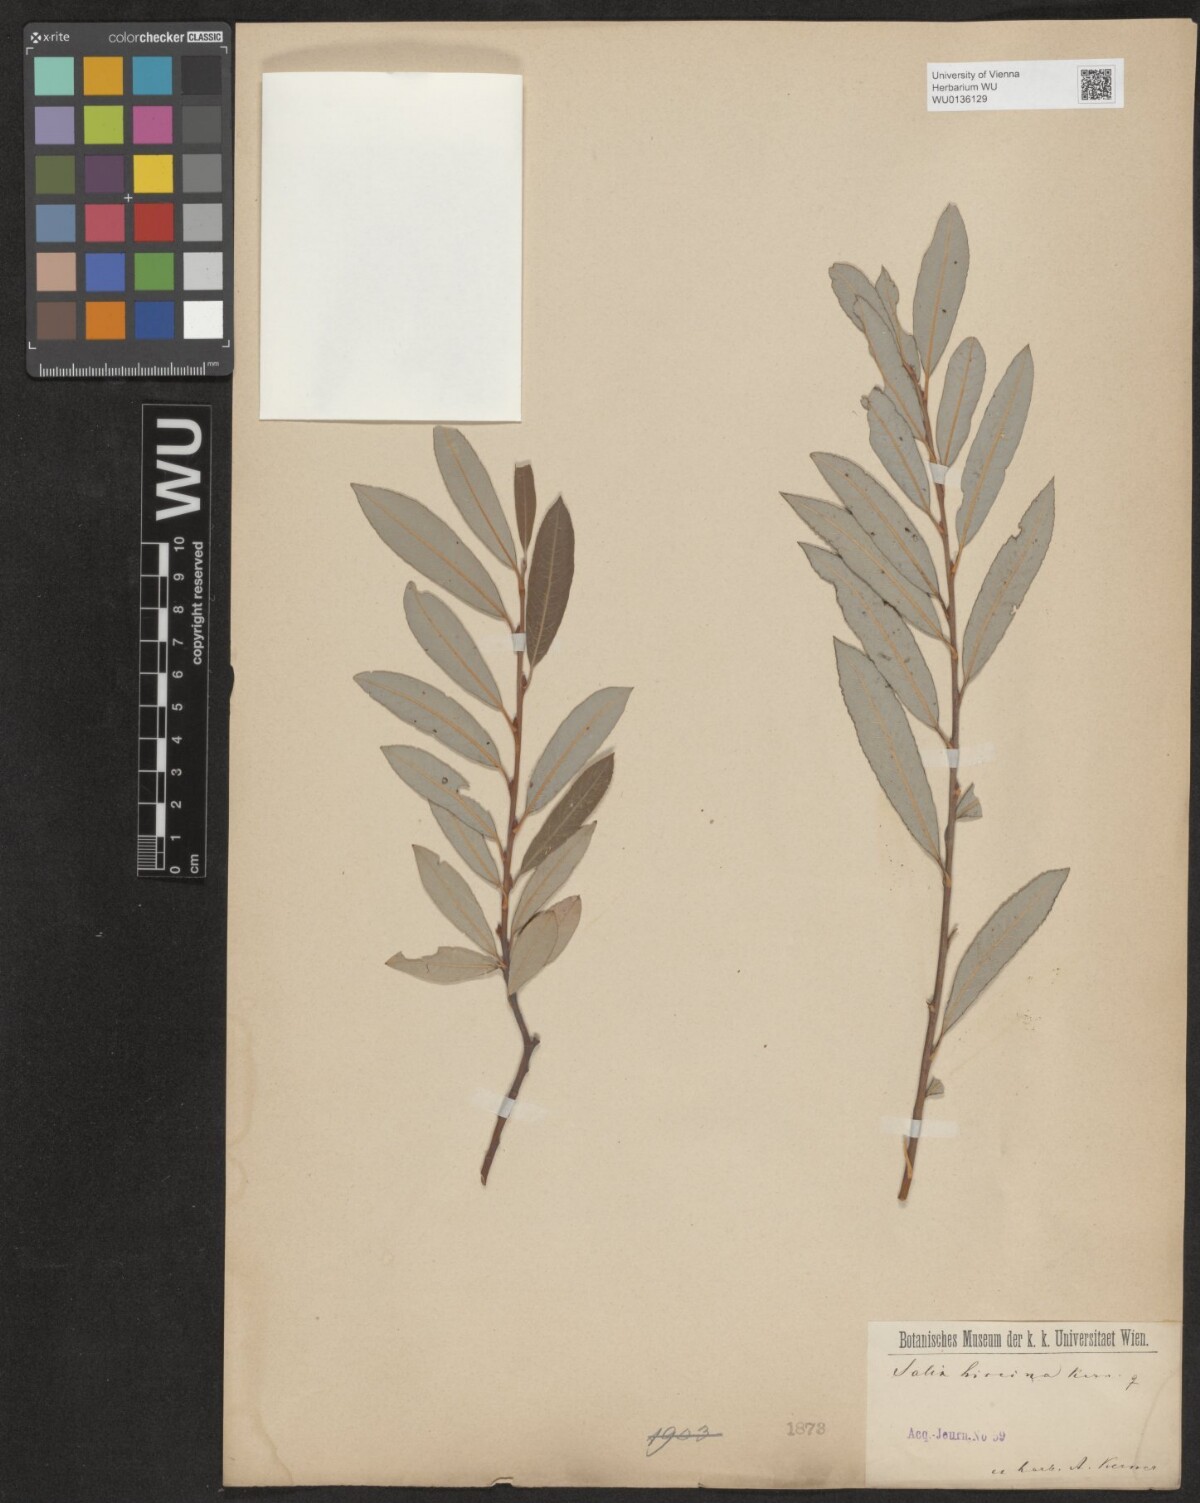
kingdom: Plantae
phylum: Tracheophyta
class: Magnoliopsida
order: Malpighiales
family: Salicaceae
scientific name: Salicaceae
